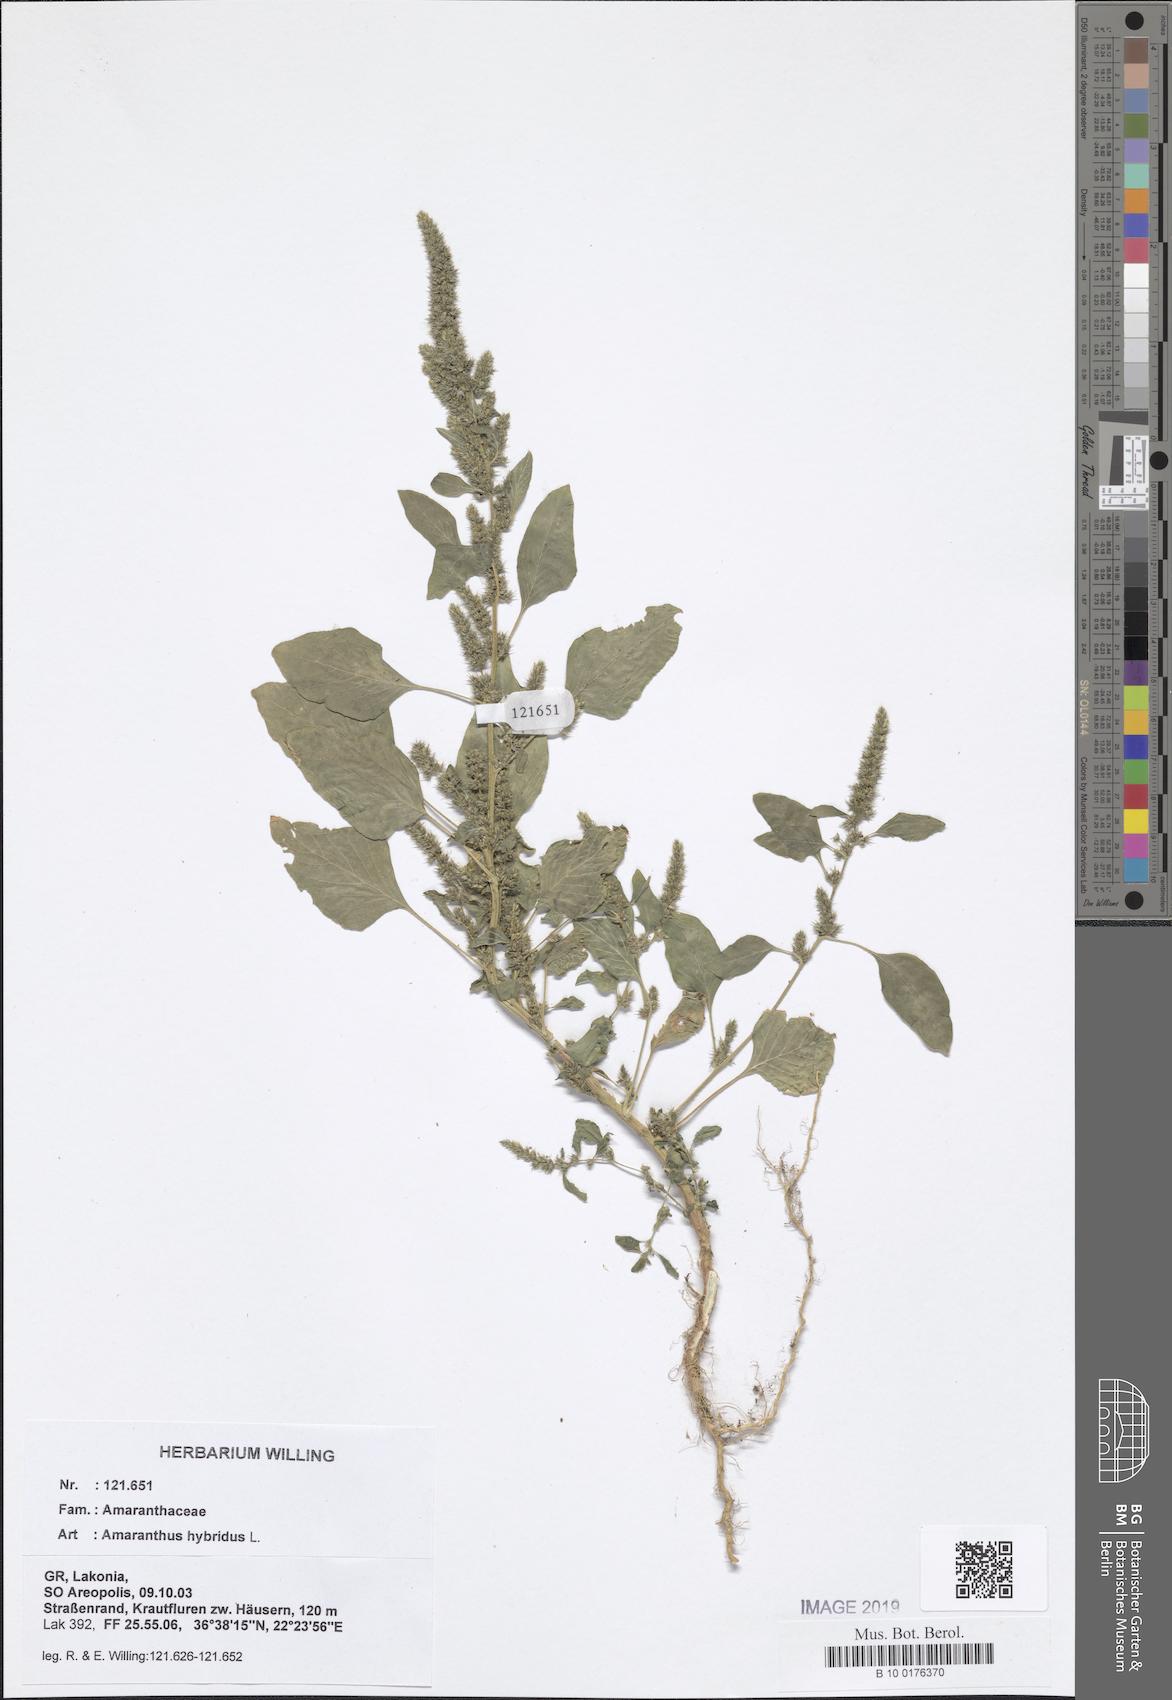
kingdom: Plantae
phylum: Tracheophyta
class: Magnoliopsida
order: Caryophyllales
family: Amaranthaceae
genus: Amaranthus
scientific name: Amaranthus hybridus
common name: Green amaranth
